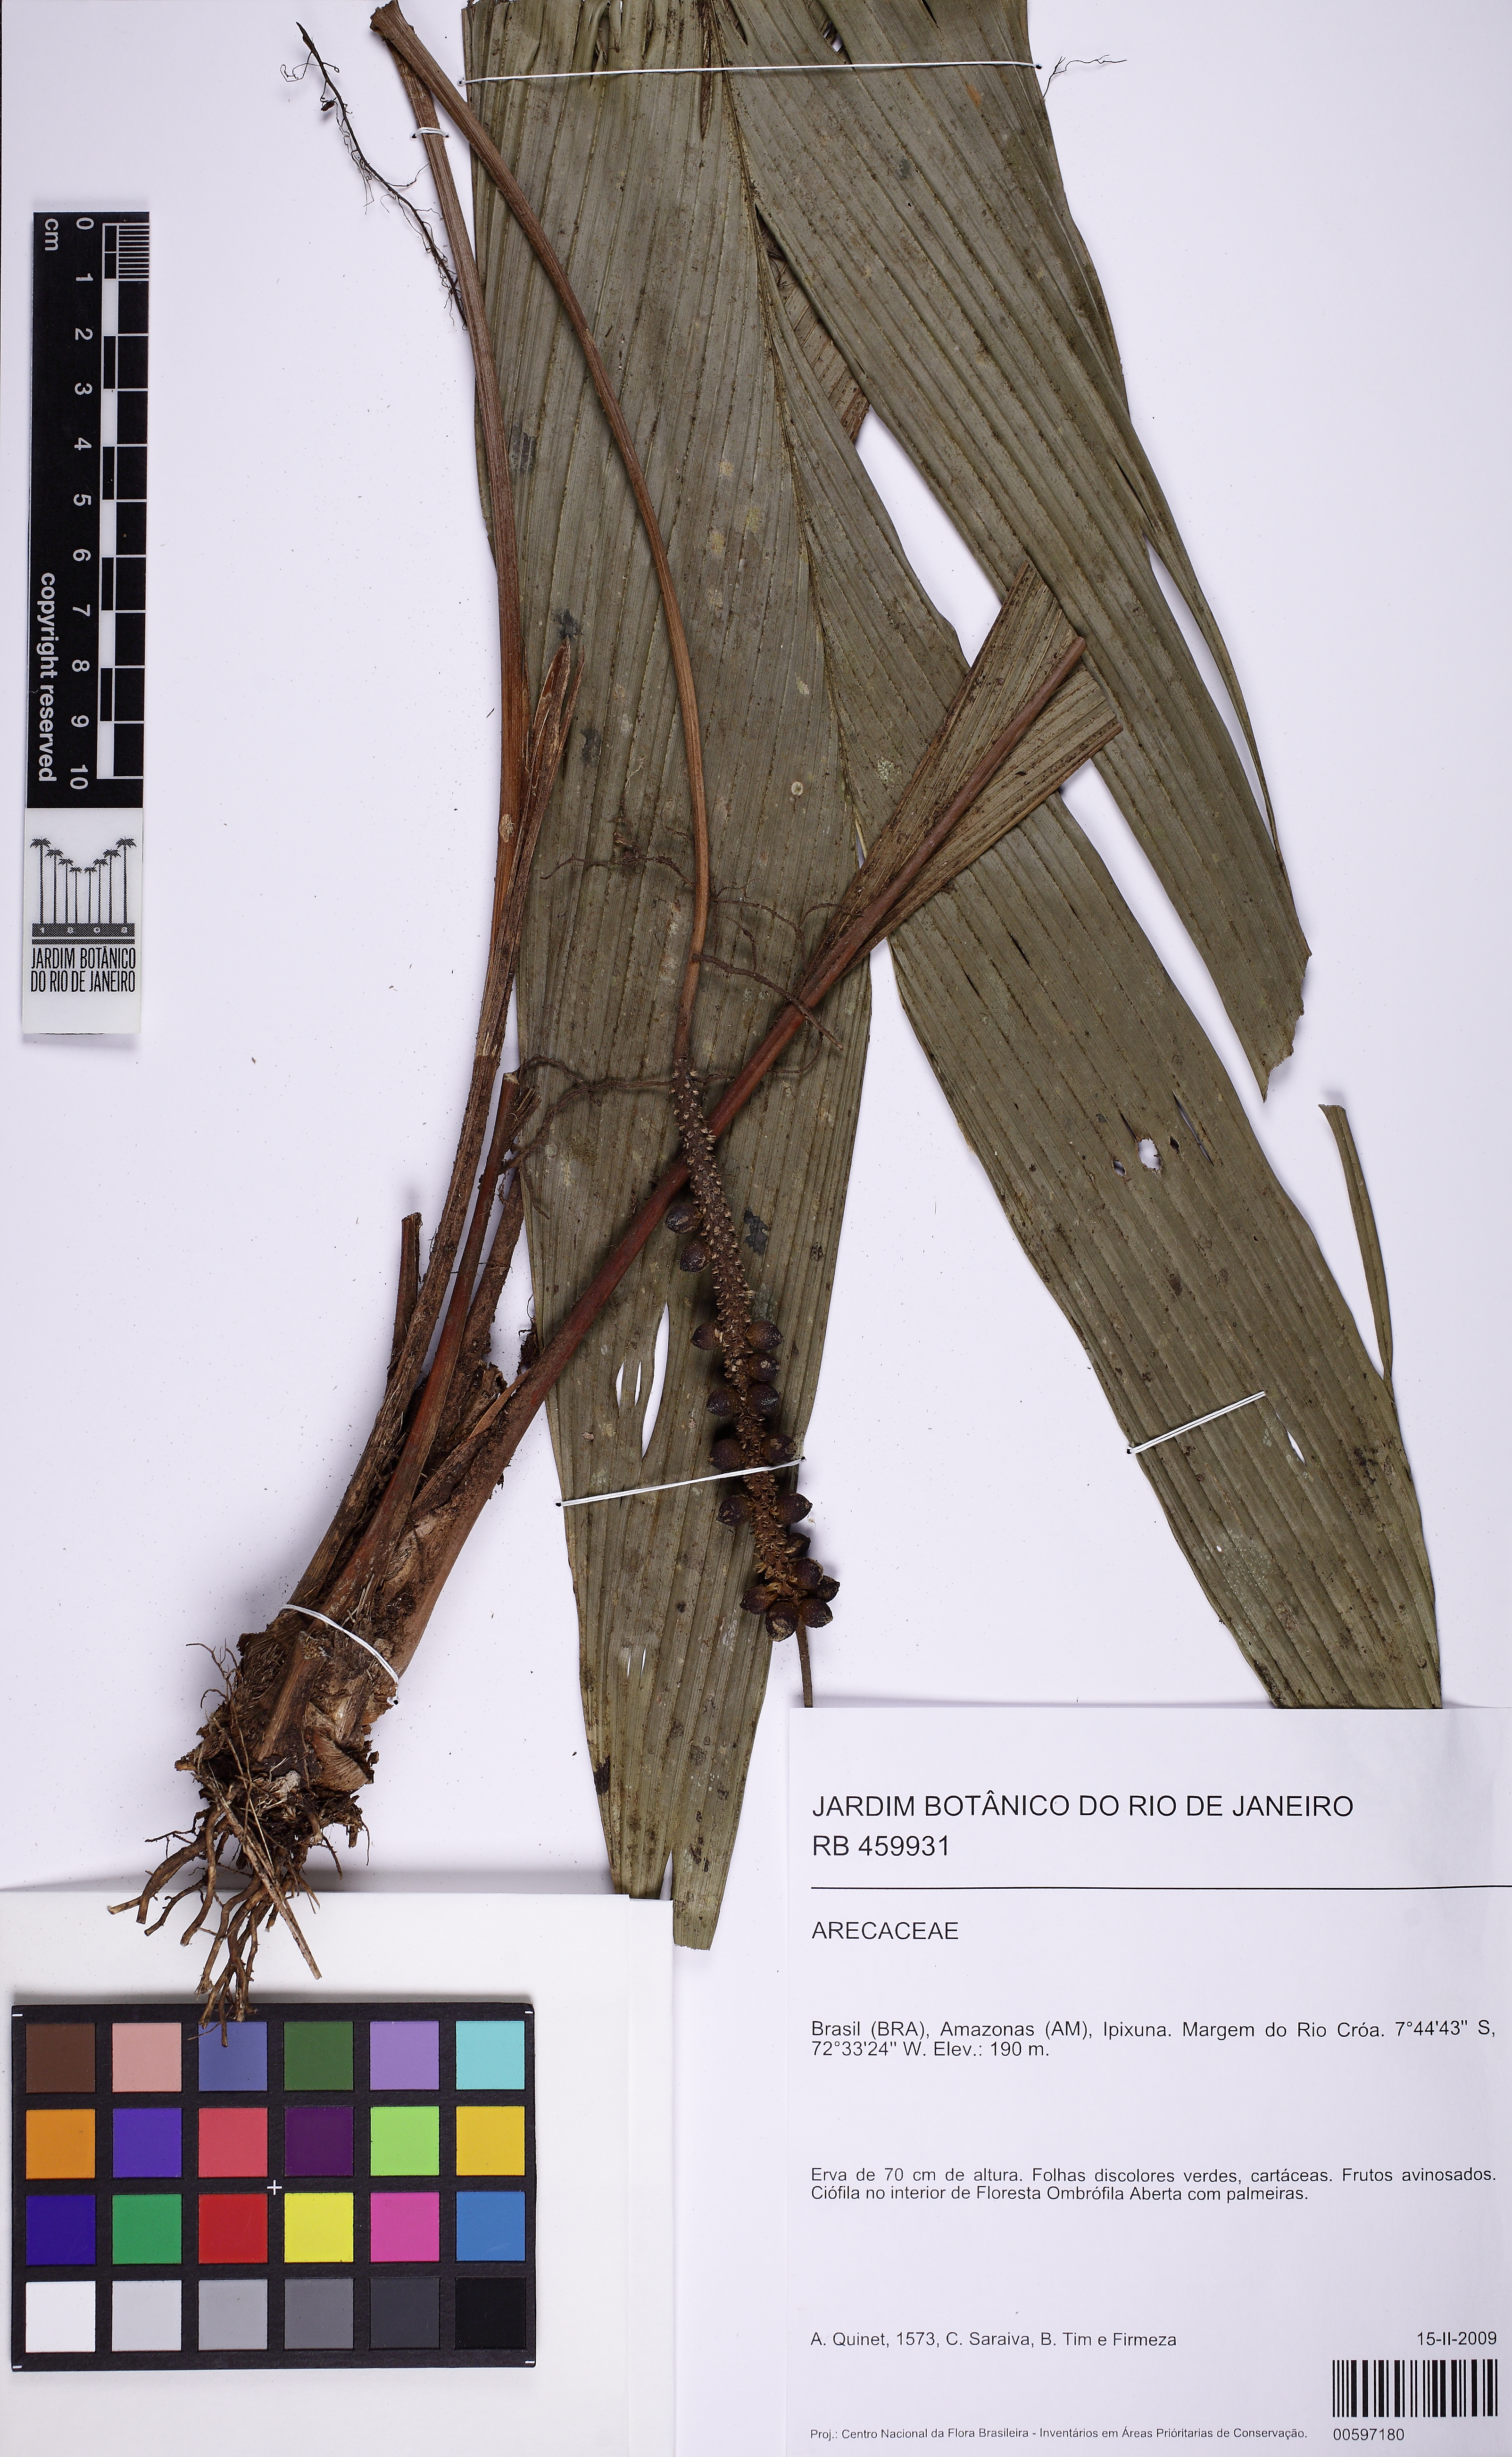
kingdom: Plantae
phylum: Tracheophyta
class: Liliopsida
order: Arecales
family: Arecaceae
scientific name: Arecaceae
